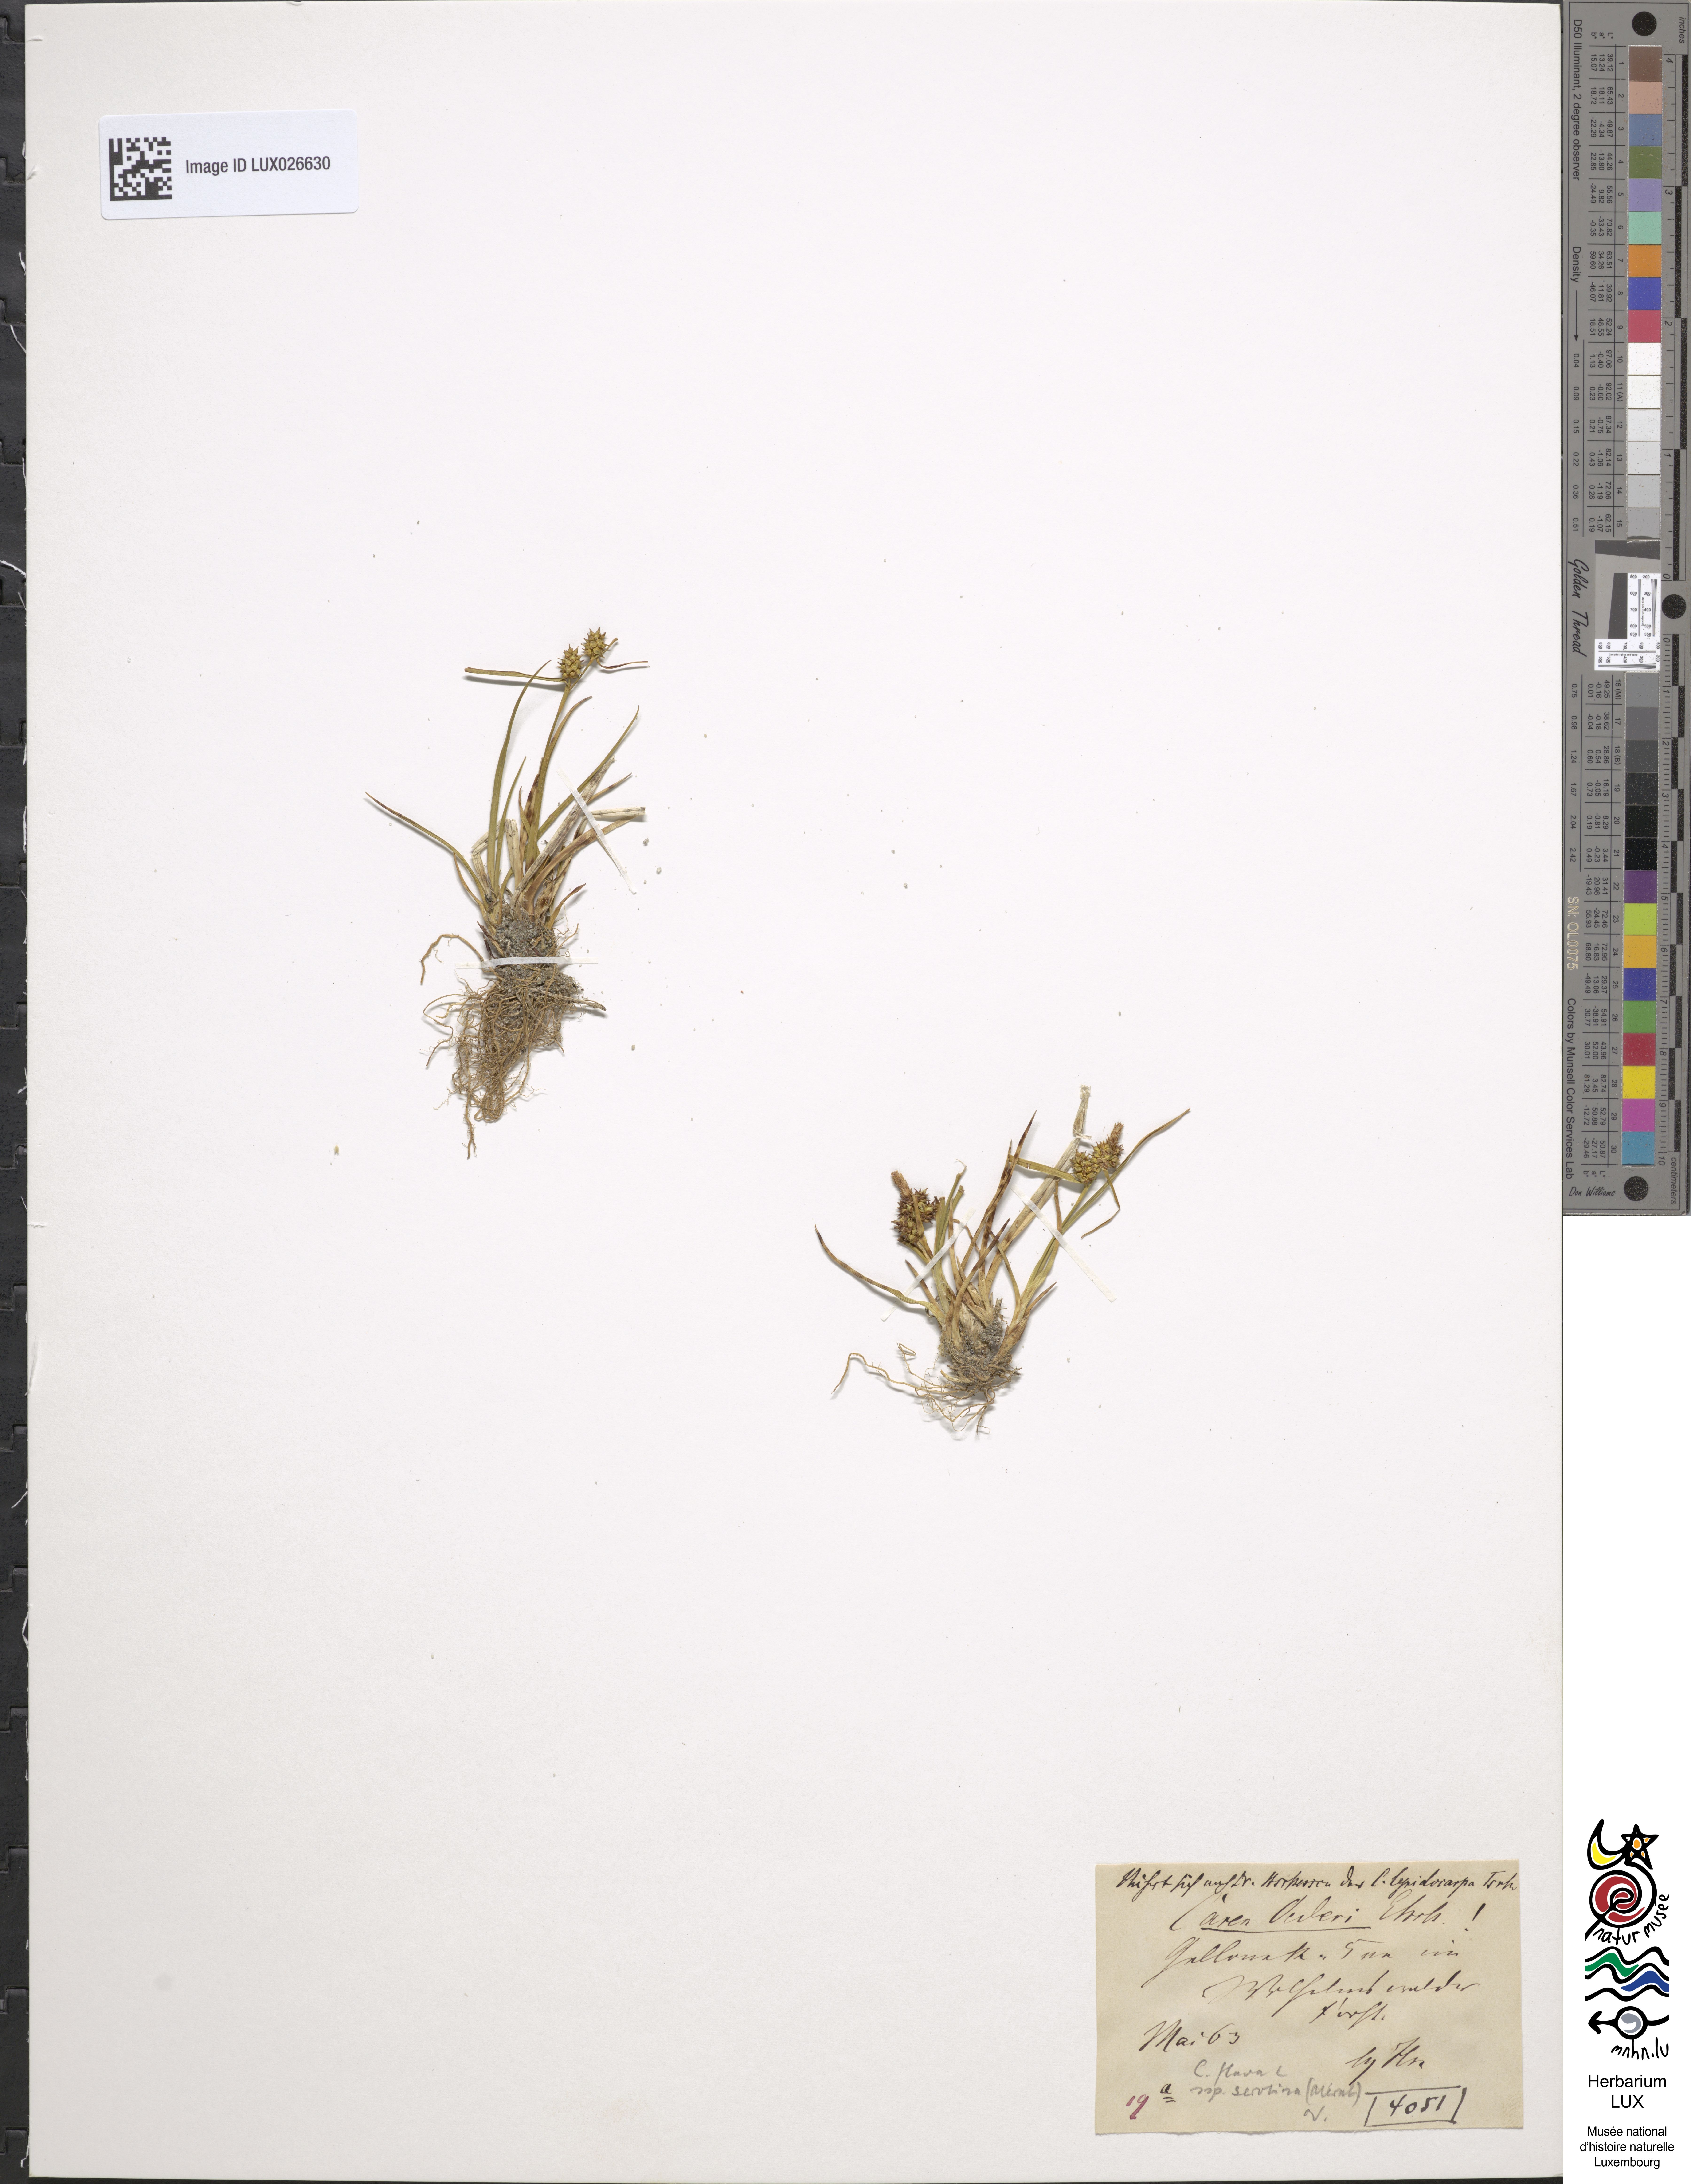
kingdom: Plantae
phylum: Tracheophyta
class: Liliopsida
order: Poales
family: Cyperaceae
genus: Carex
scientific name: Carex oederi
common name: Common & small-fruited yellow-sedge
